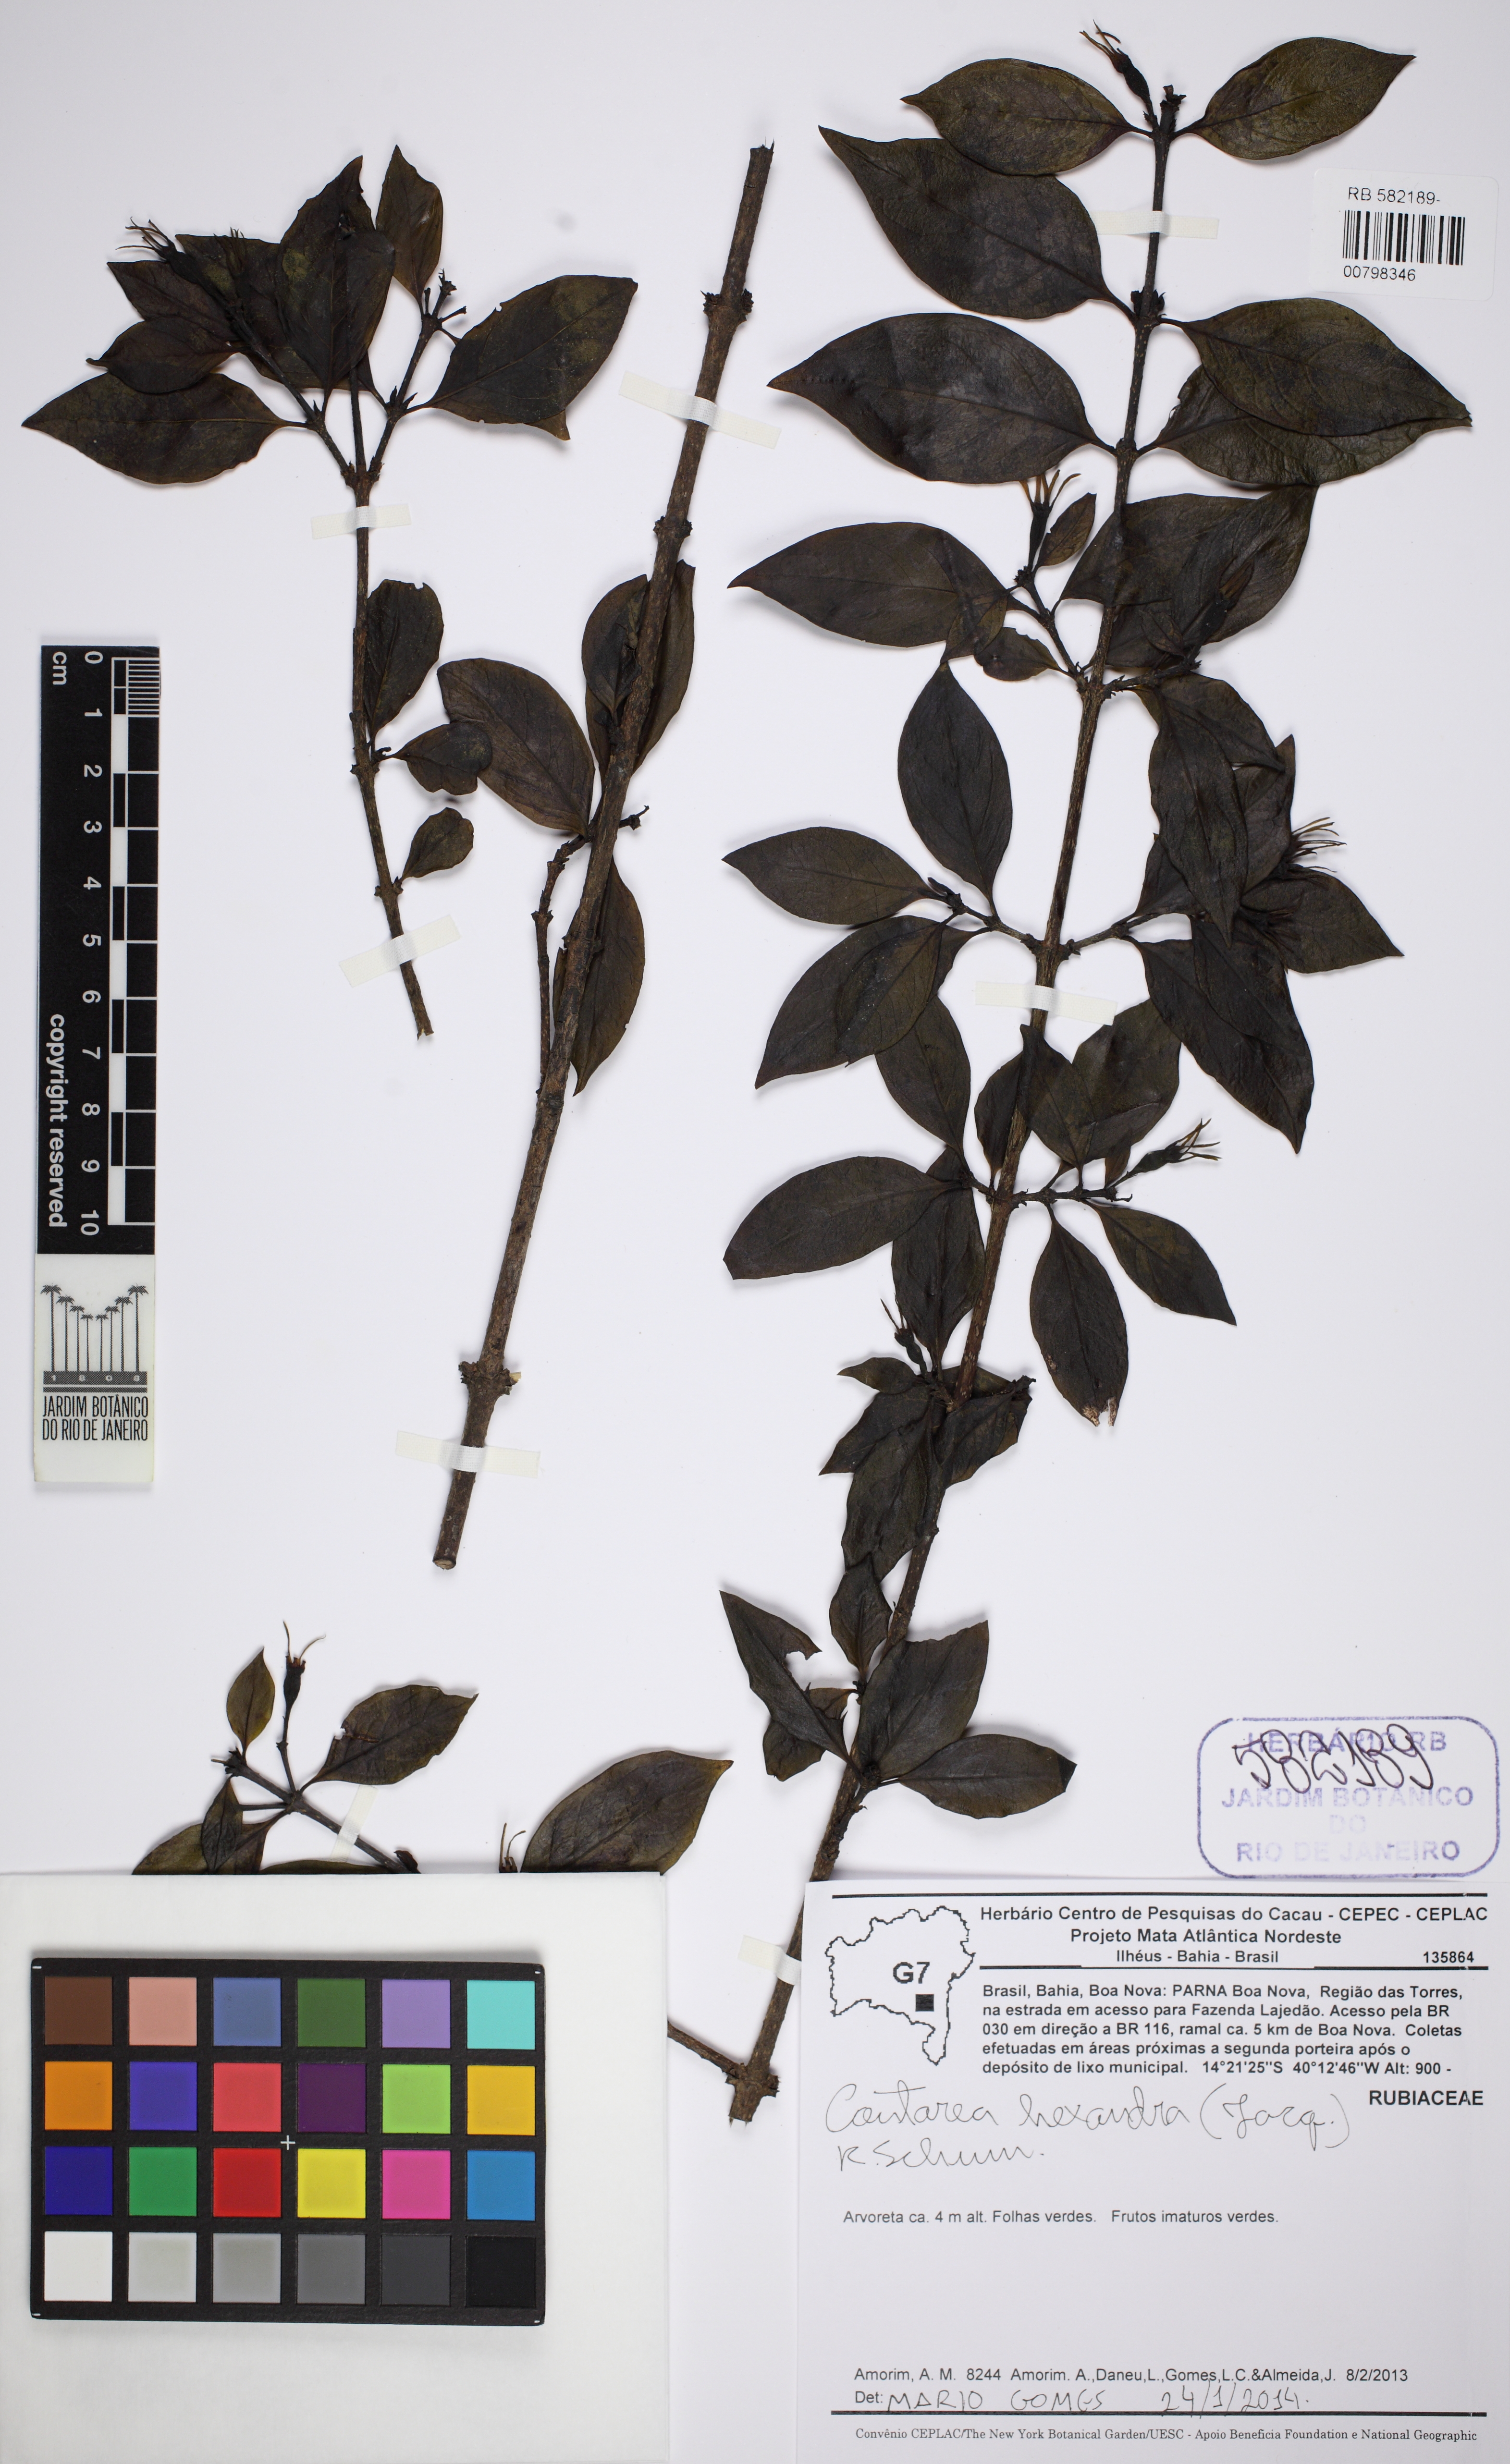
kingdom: Plantae
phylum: Tracheophyta
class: Magnoliopsida
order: Gentianales
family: Rubiaceae
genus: Coutarea
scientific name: Coutarea hexandra
